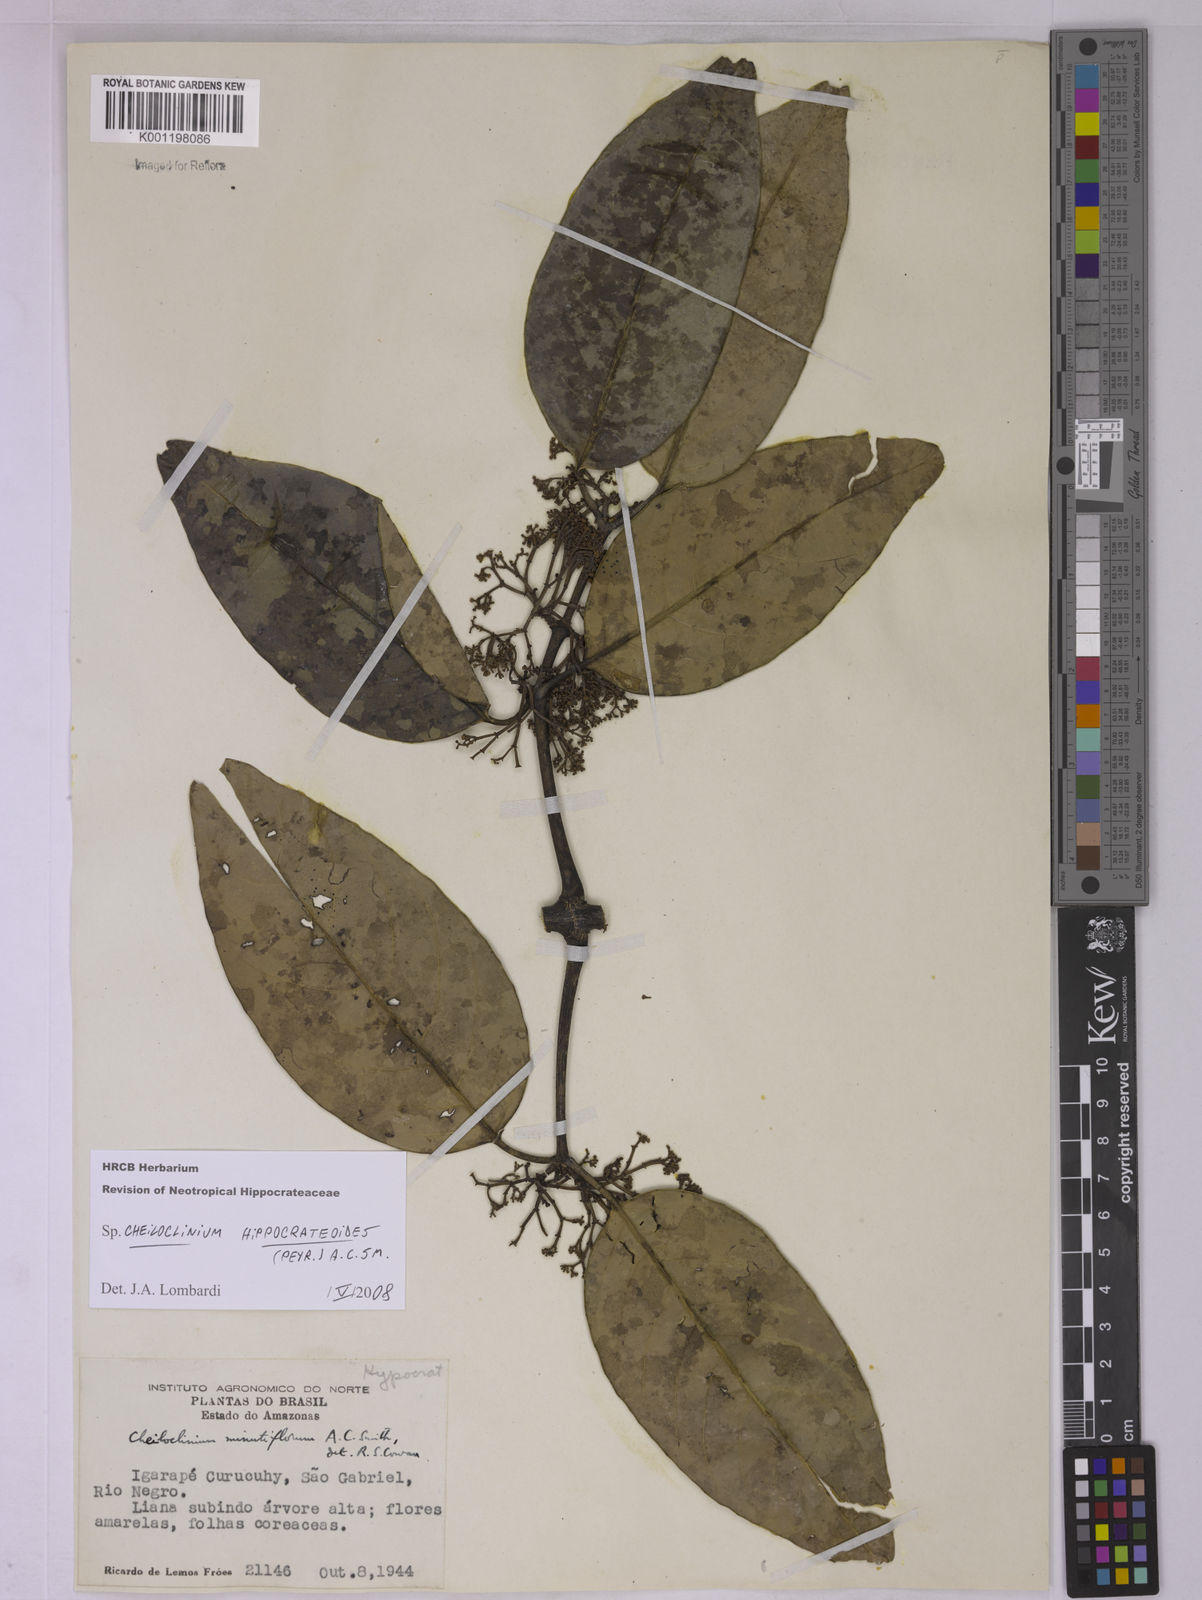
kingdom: Plantae
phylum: Tracheophyta
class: Magnoliopsida
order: Celastrales
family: Celastraceae
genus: Cheiloclinium
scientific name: Cheiloclinium hippocrateoides
